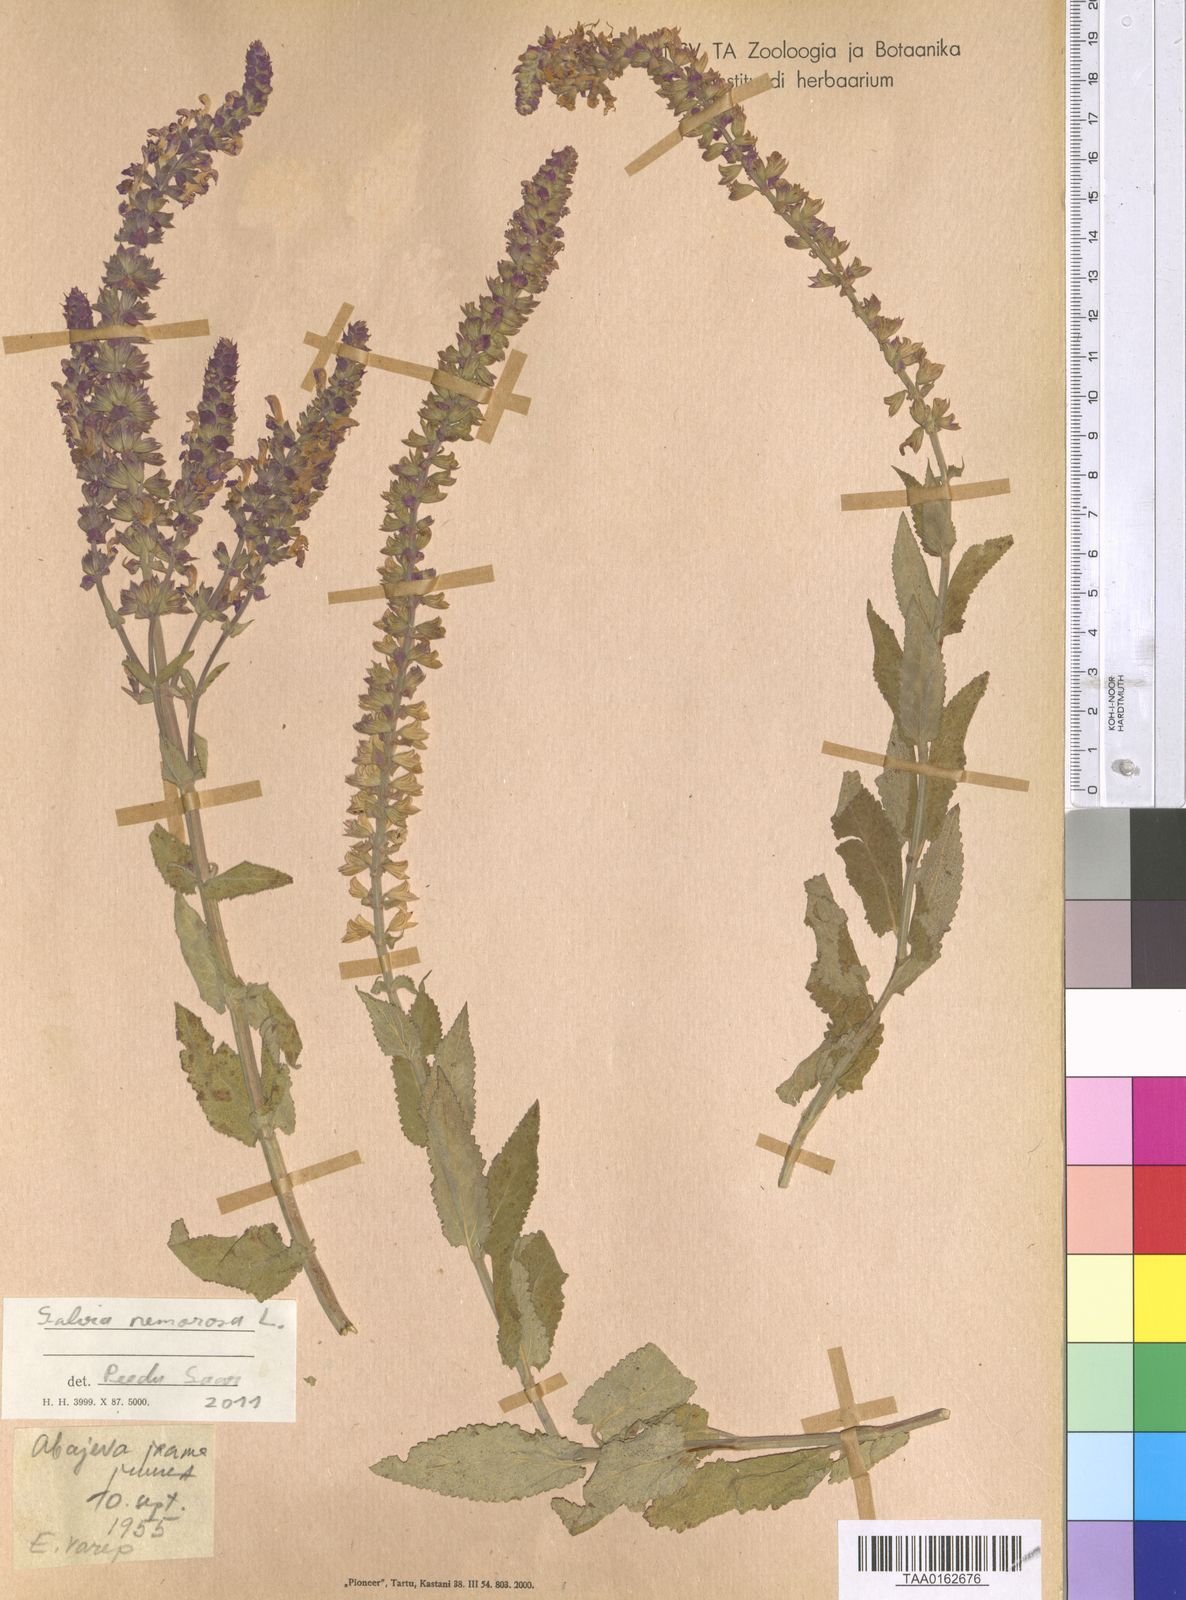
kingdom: Plantae
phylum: Tracheophyta
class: Magnoliopsida
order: Lamiales
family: Lamiaceae
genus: Salvia
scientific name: Salvia nemorosa
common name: Balkan clary
